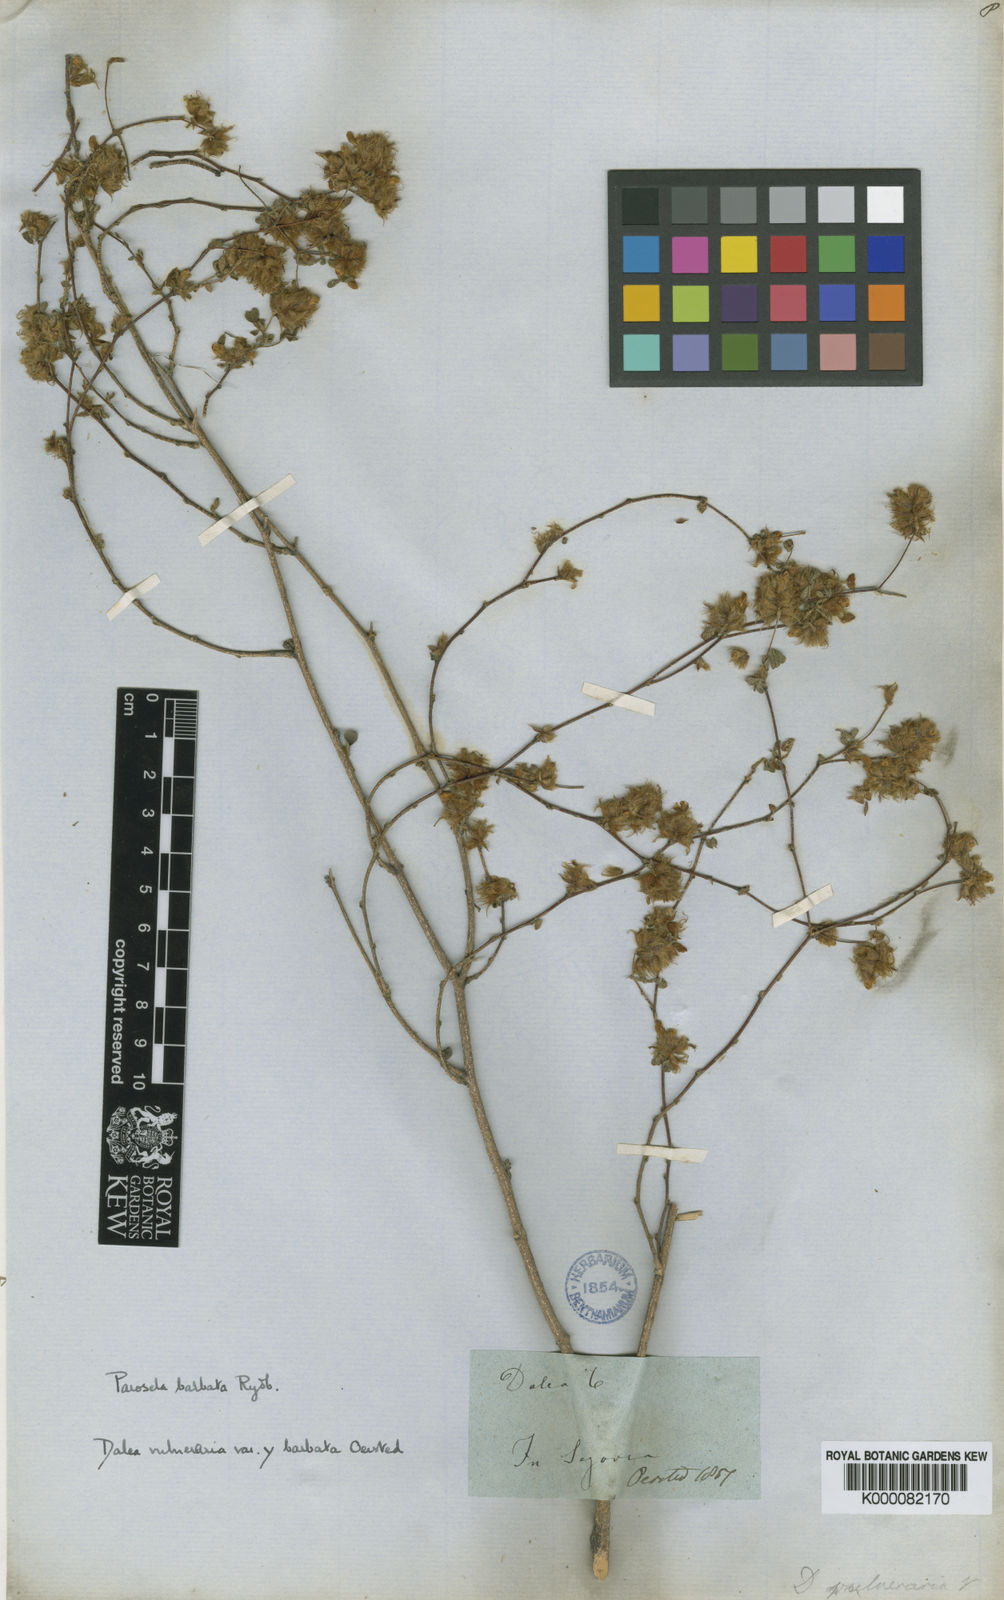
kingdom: Plantae
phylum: Tracheophyta
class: Magnoliopsida
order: Fabales
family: Fabaceae
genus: Dalea
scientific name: Dalea carthagenensis
